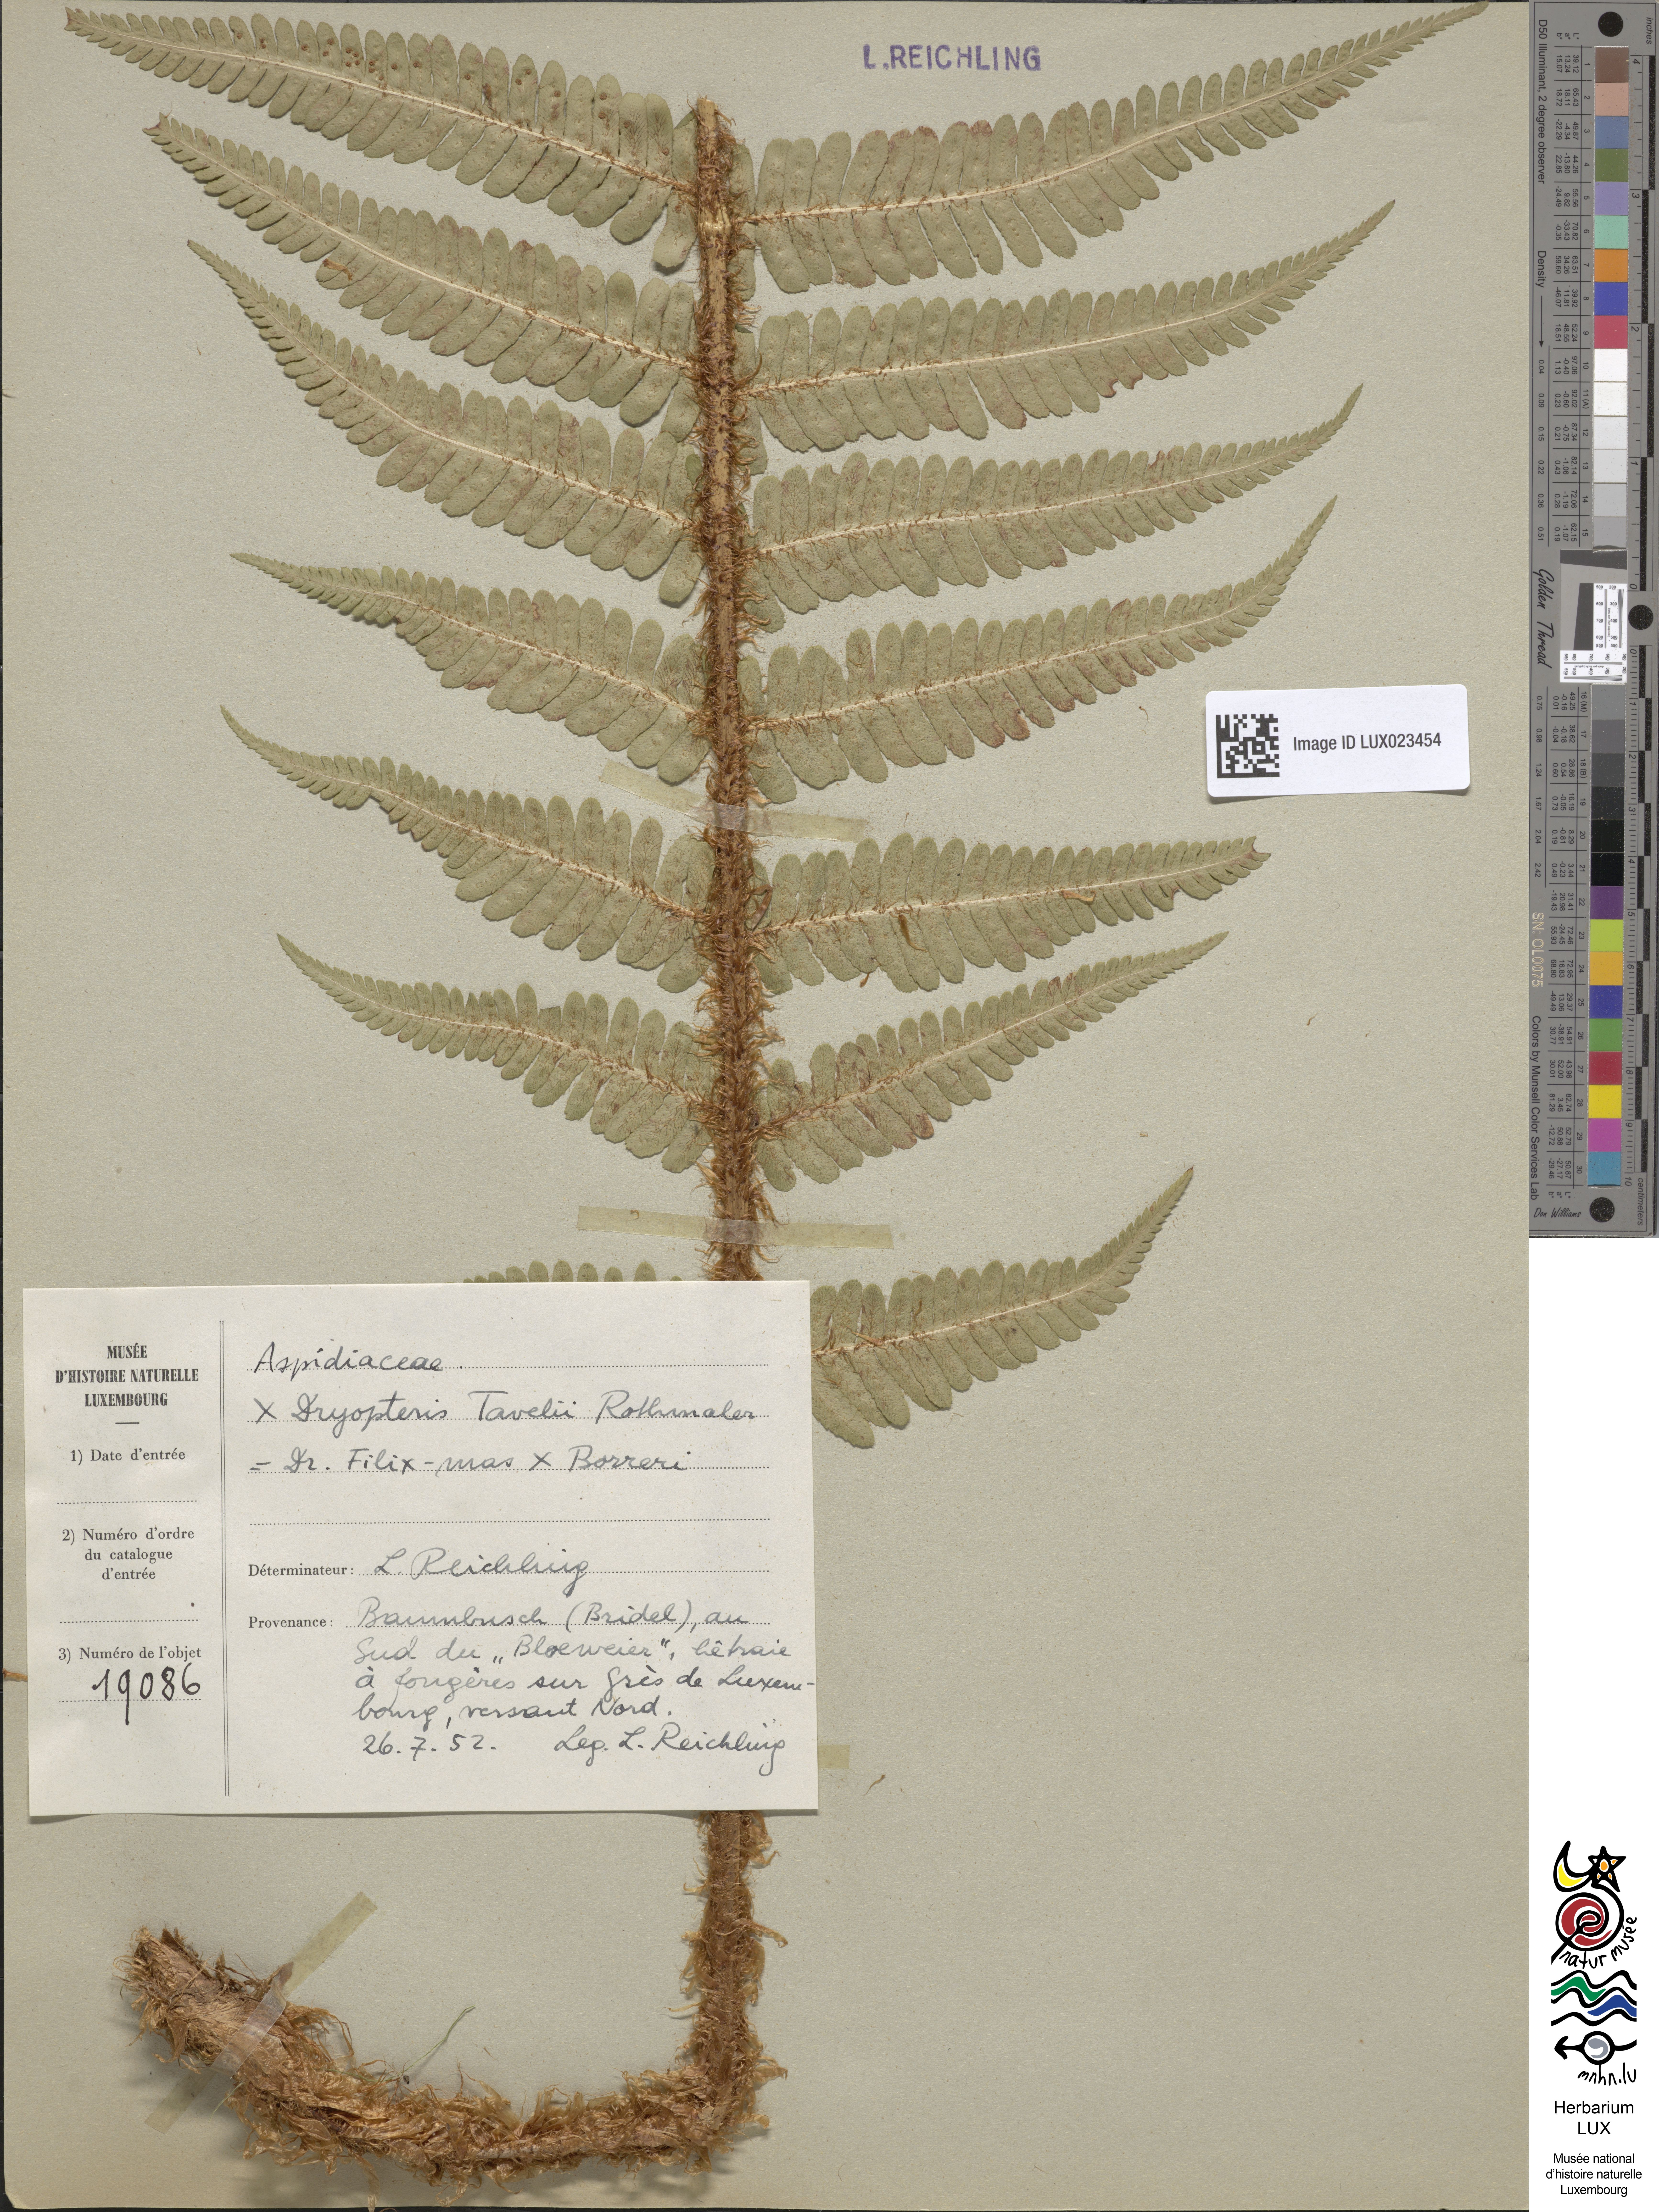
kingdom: Plantae
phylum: Tracheophyta
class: Polypodiopsida
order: Polypodiales
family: Dryopteridaceae
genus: Dryopteris
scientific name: Dryopteris borreri
